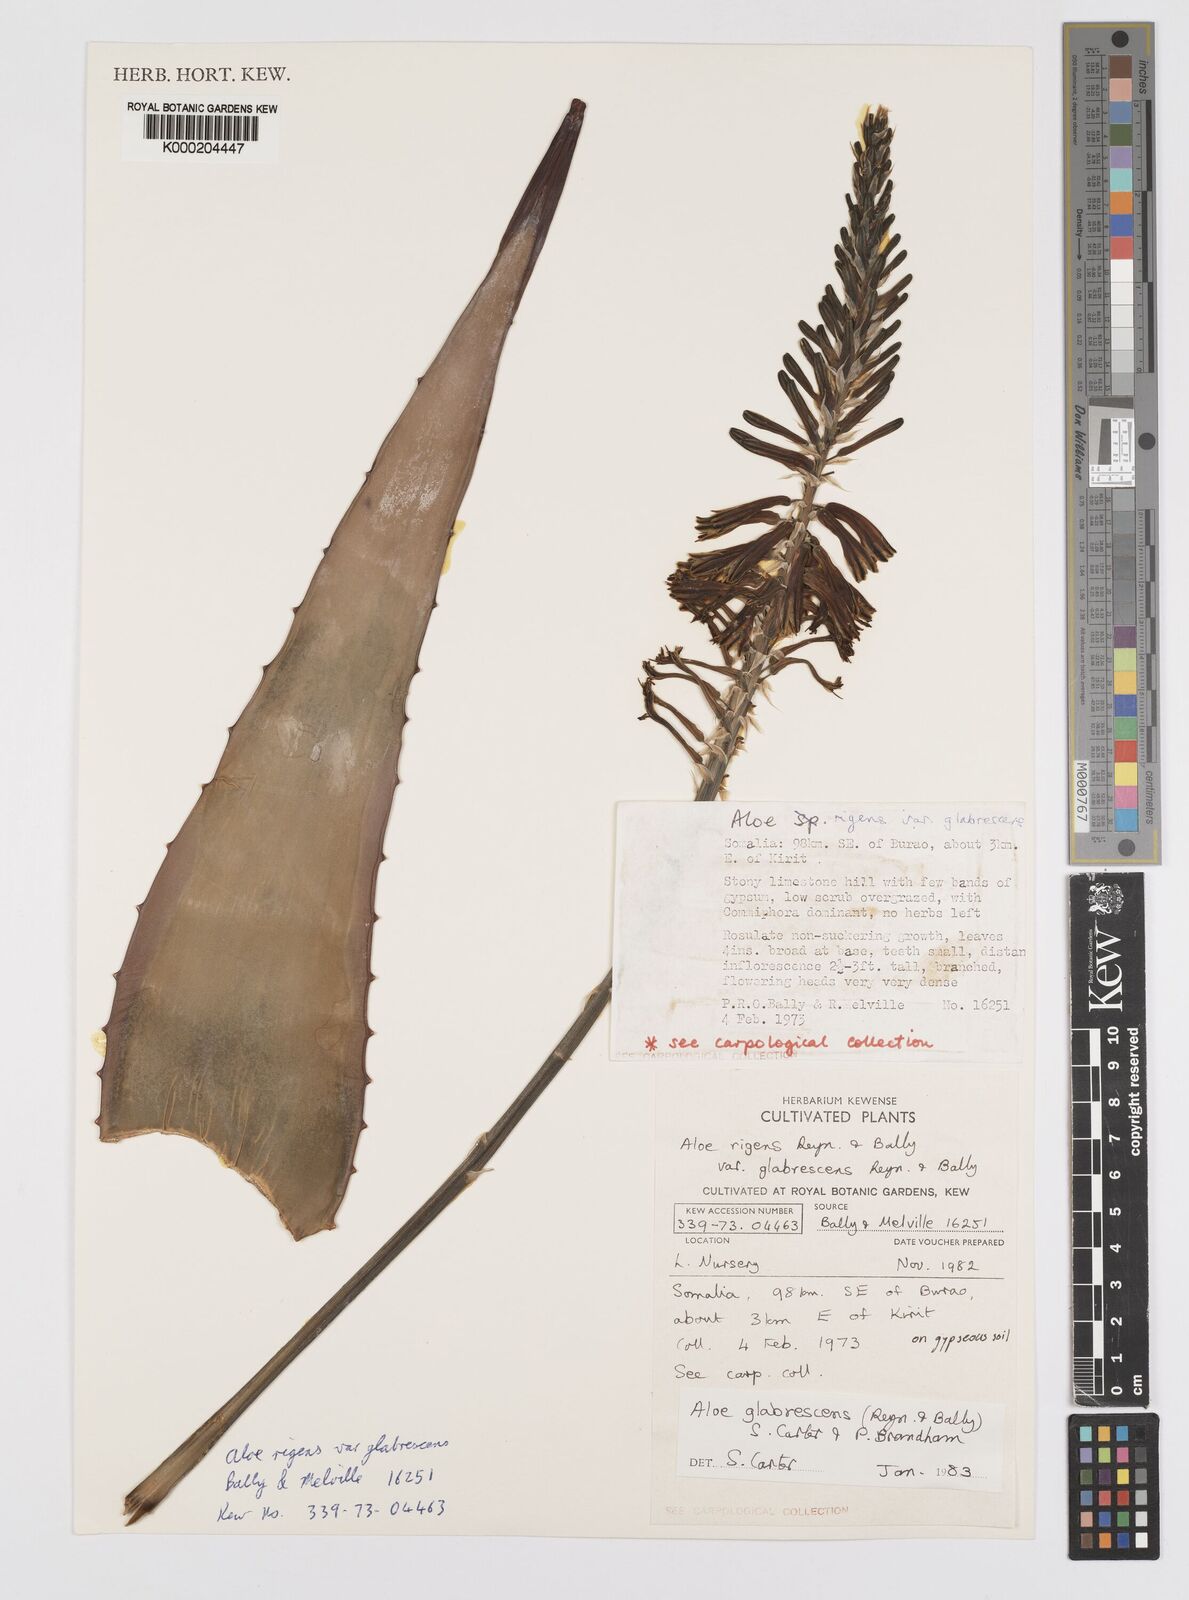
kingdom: Plantae
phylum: Tracheophyta
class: Liliopsida
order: Asparagales
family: Asphodelaceae
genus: Aloe
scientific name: Aloe glabrescens
